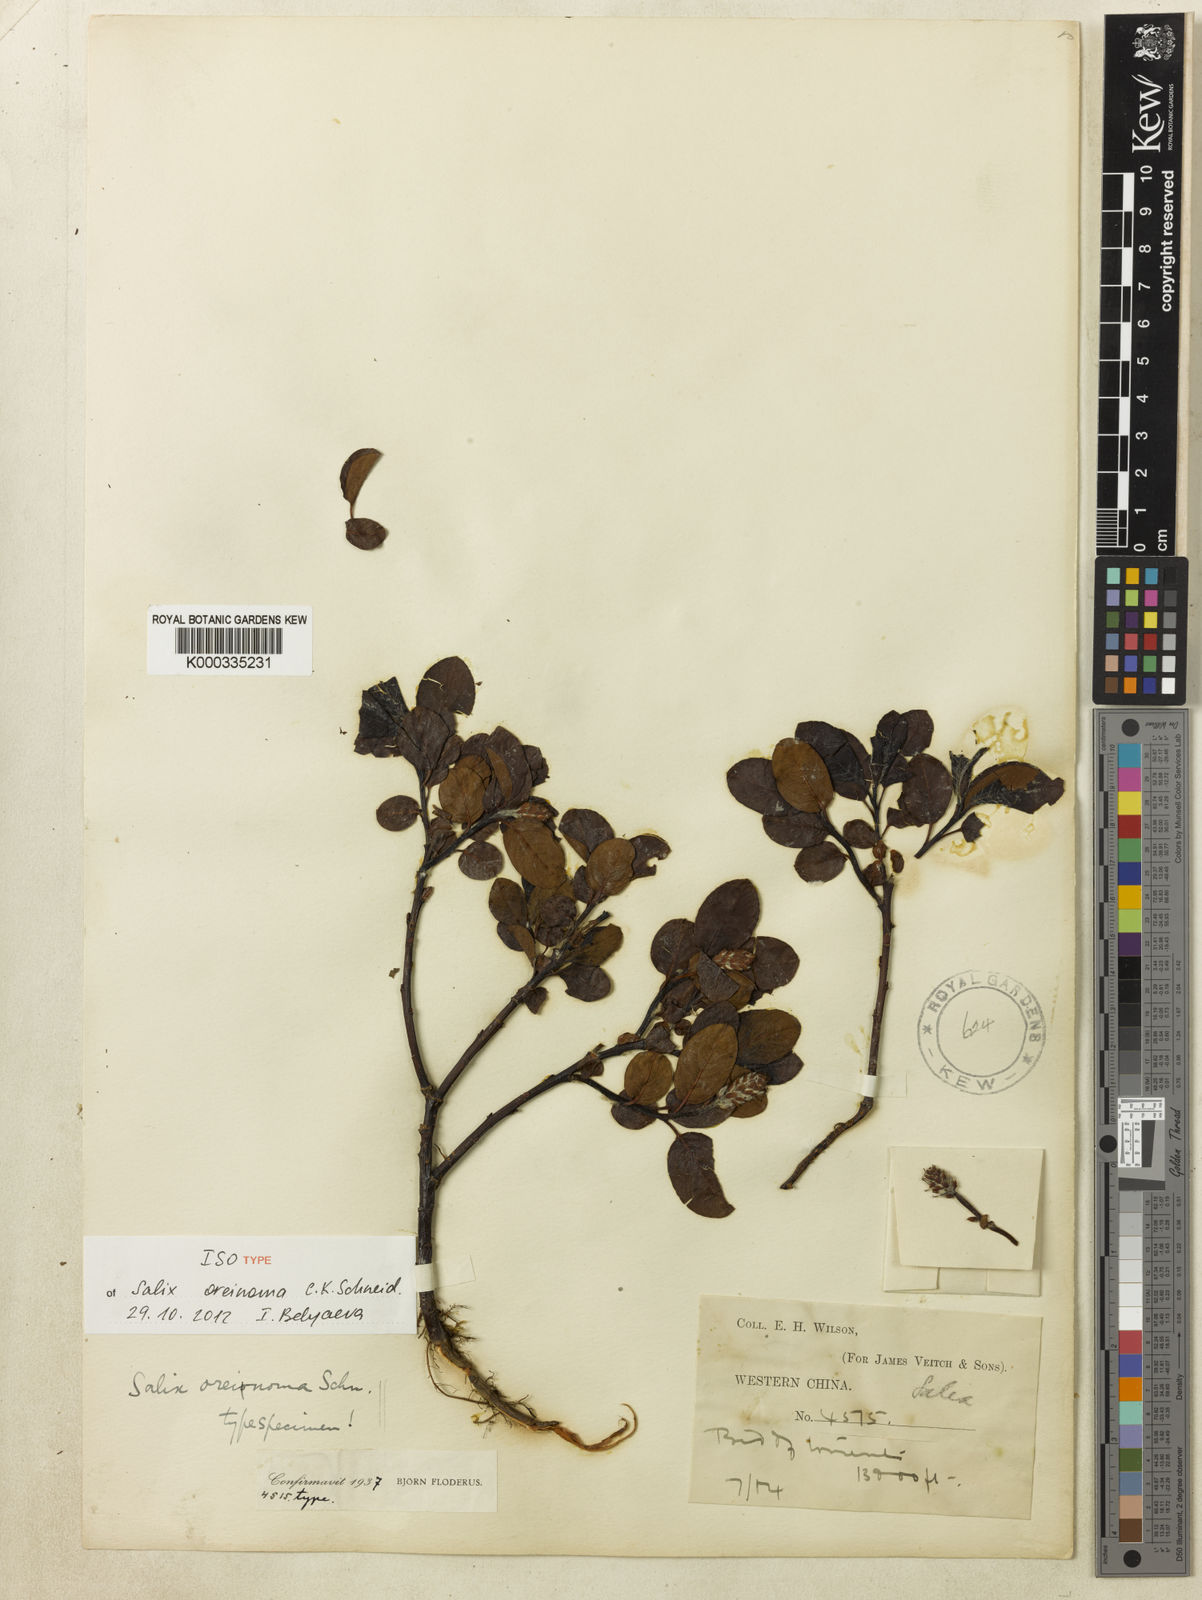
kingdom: Plantae
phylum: Tracheophyta
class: Magnoliopsida
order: Malpighiales
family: Salicaceae
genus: Salix
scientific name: Salix oreinoma
